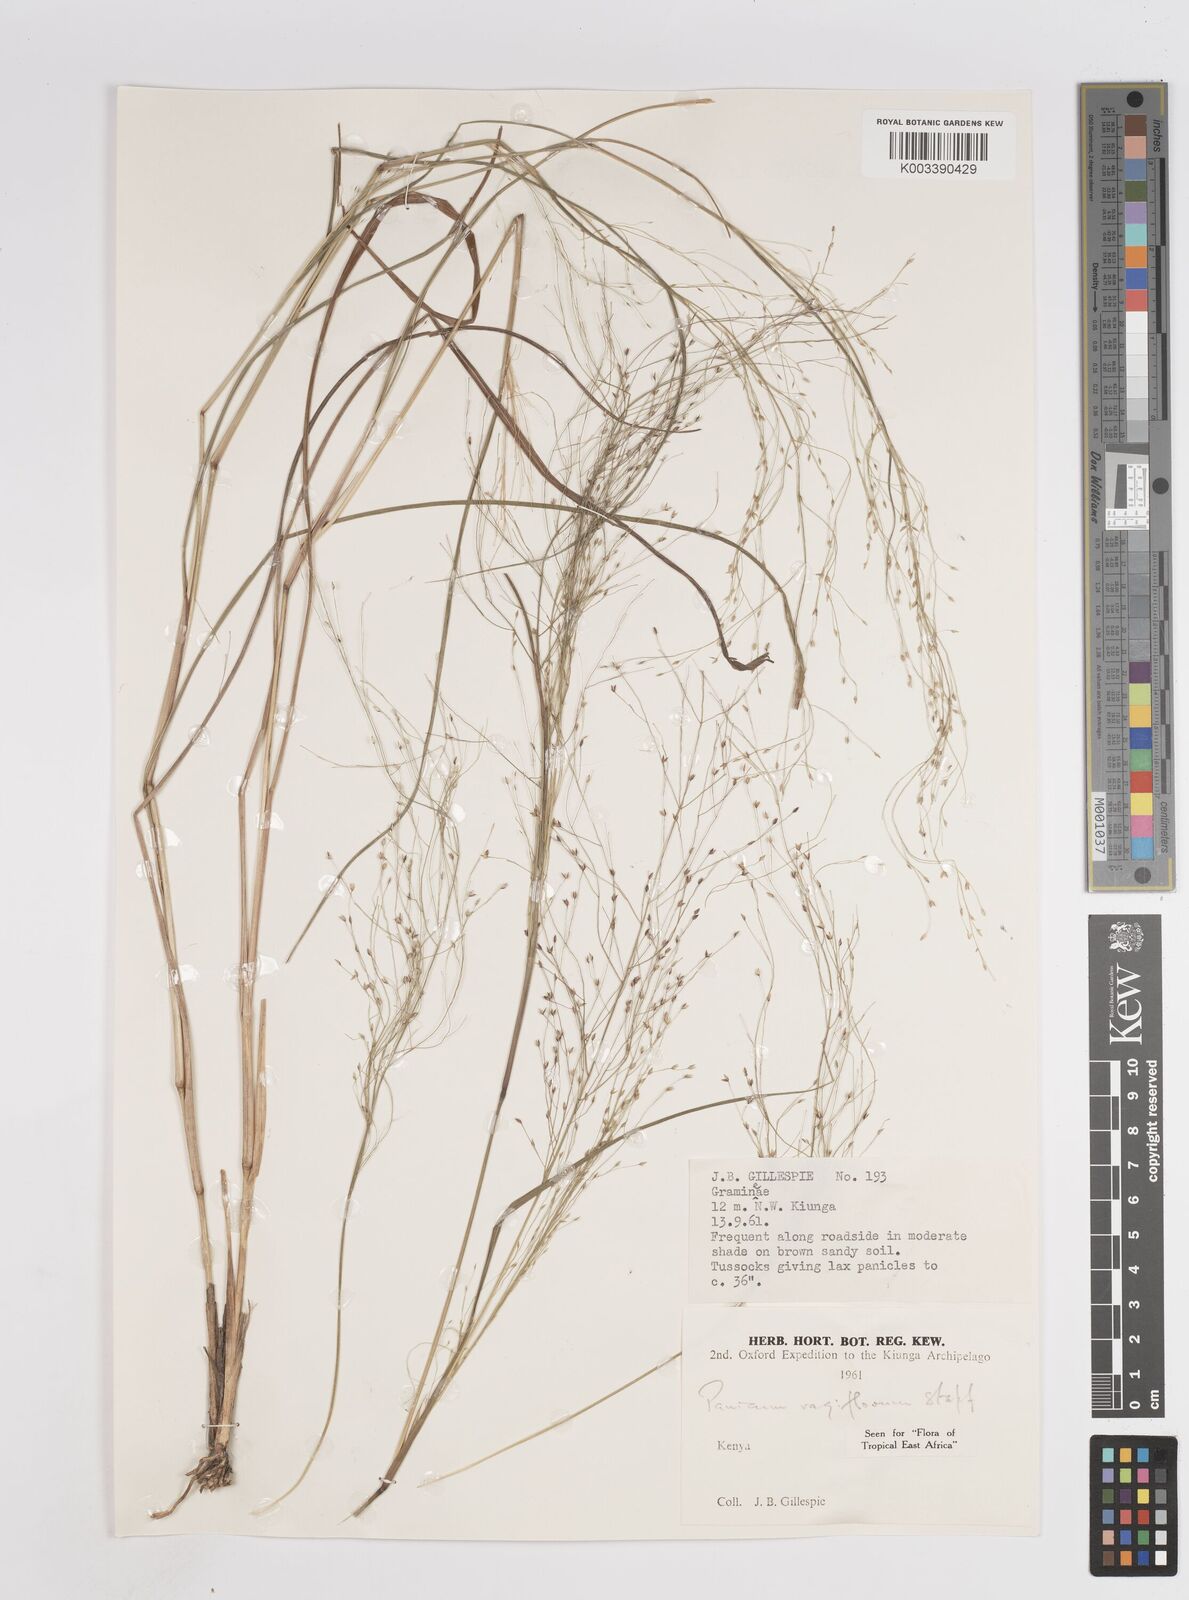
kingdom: Plantae
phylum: Tracheophyta
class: Liliopsida
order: Poales
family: Poaceae
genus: Panicum
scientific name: Panicum genuflexum
